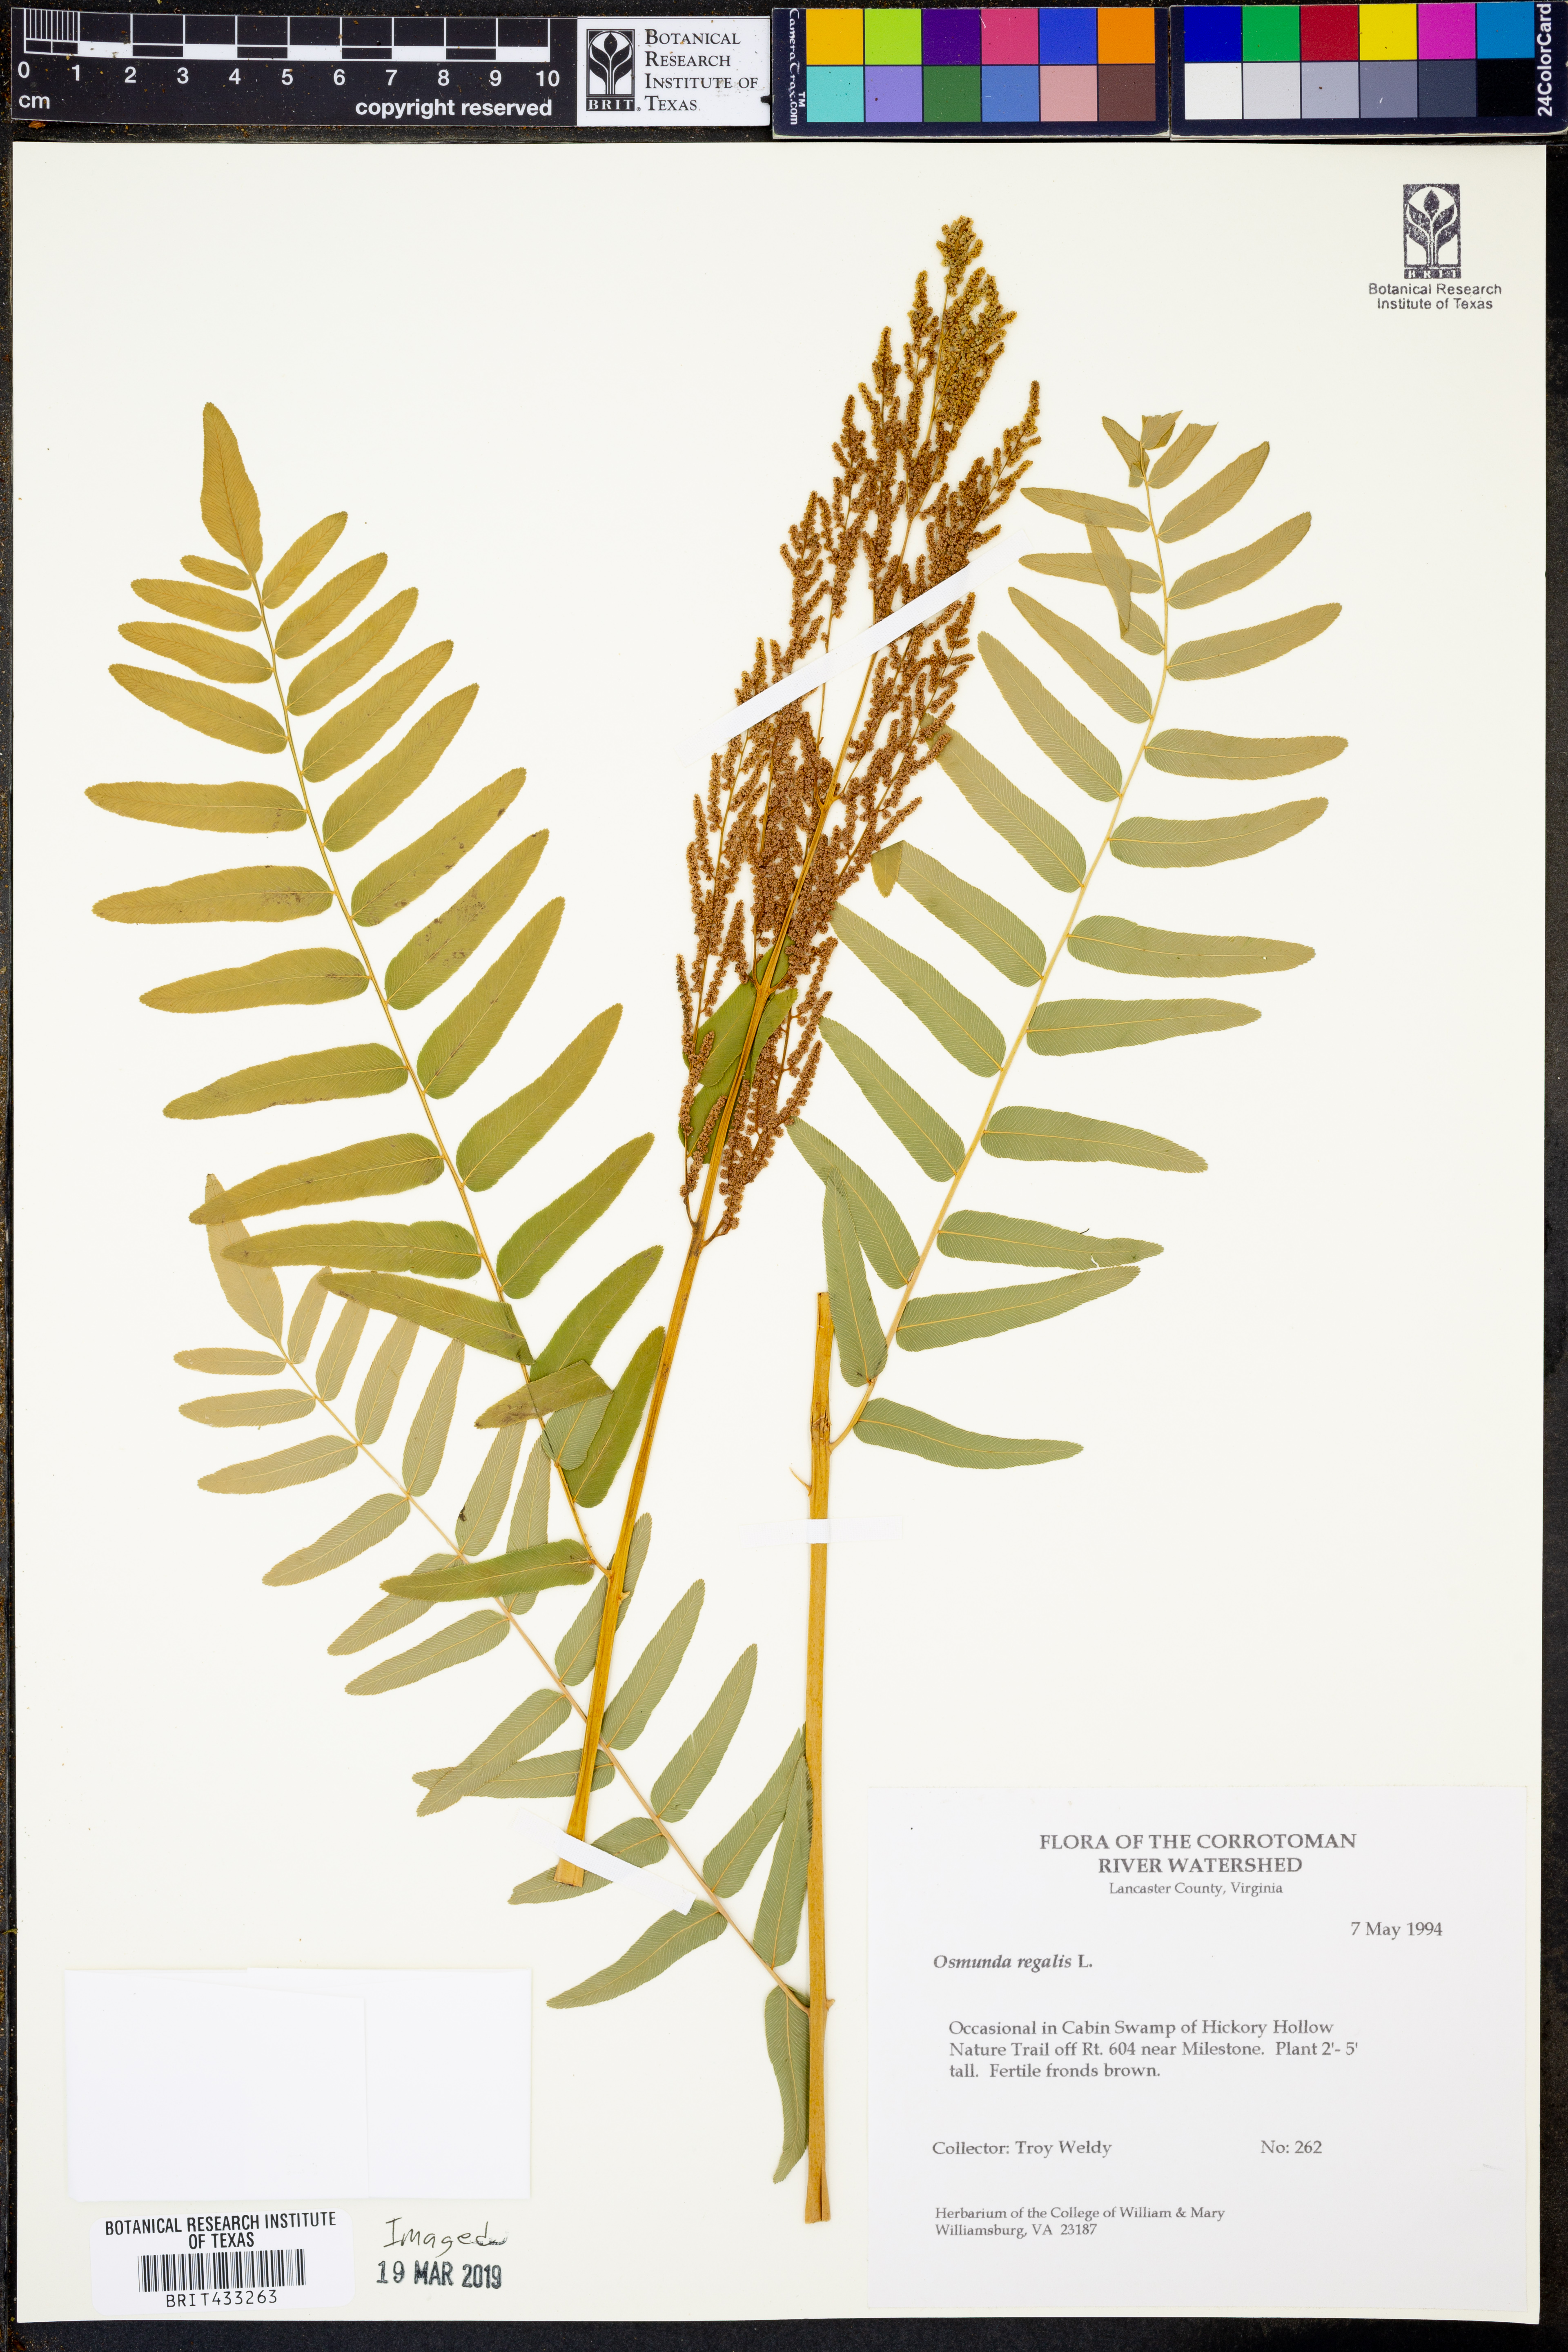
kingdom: Plantae
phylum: Tracheophyta
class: Polypodiopsida
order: Osmundales
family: Osmundaceae
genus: Osmunda
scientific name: Osmunda regalis
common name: Royal fern
